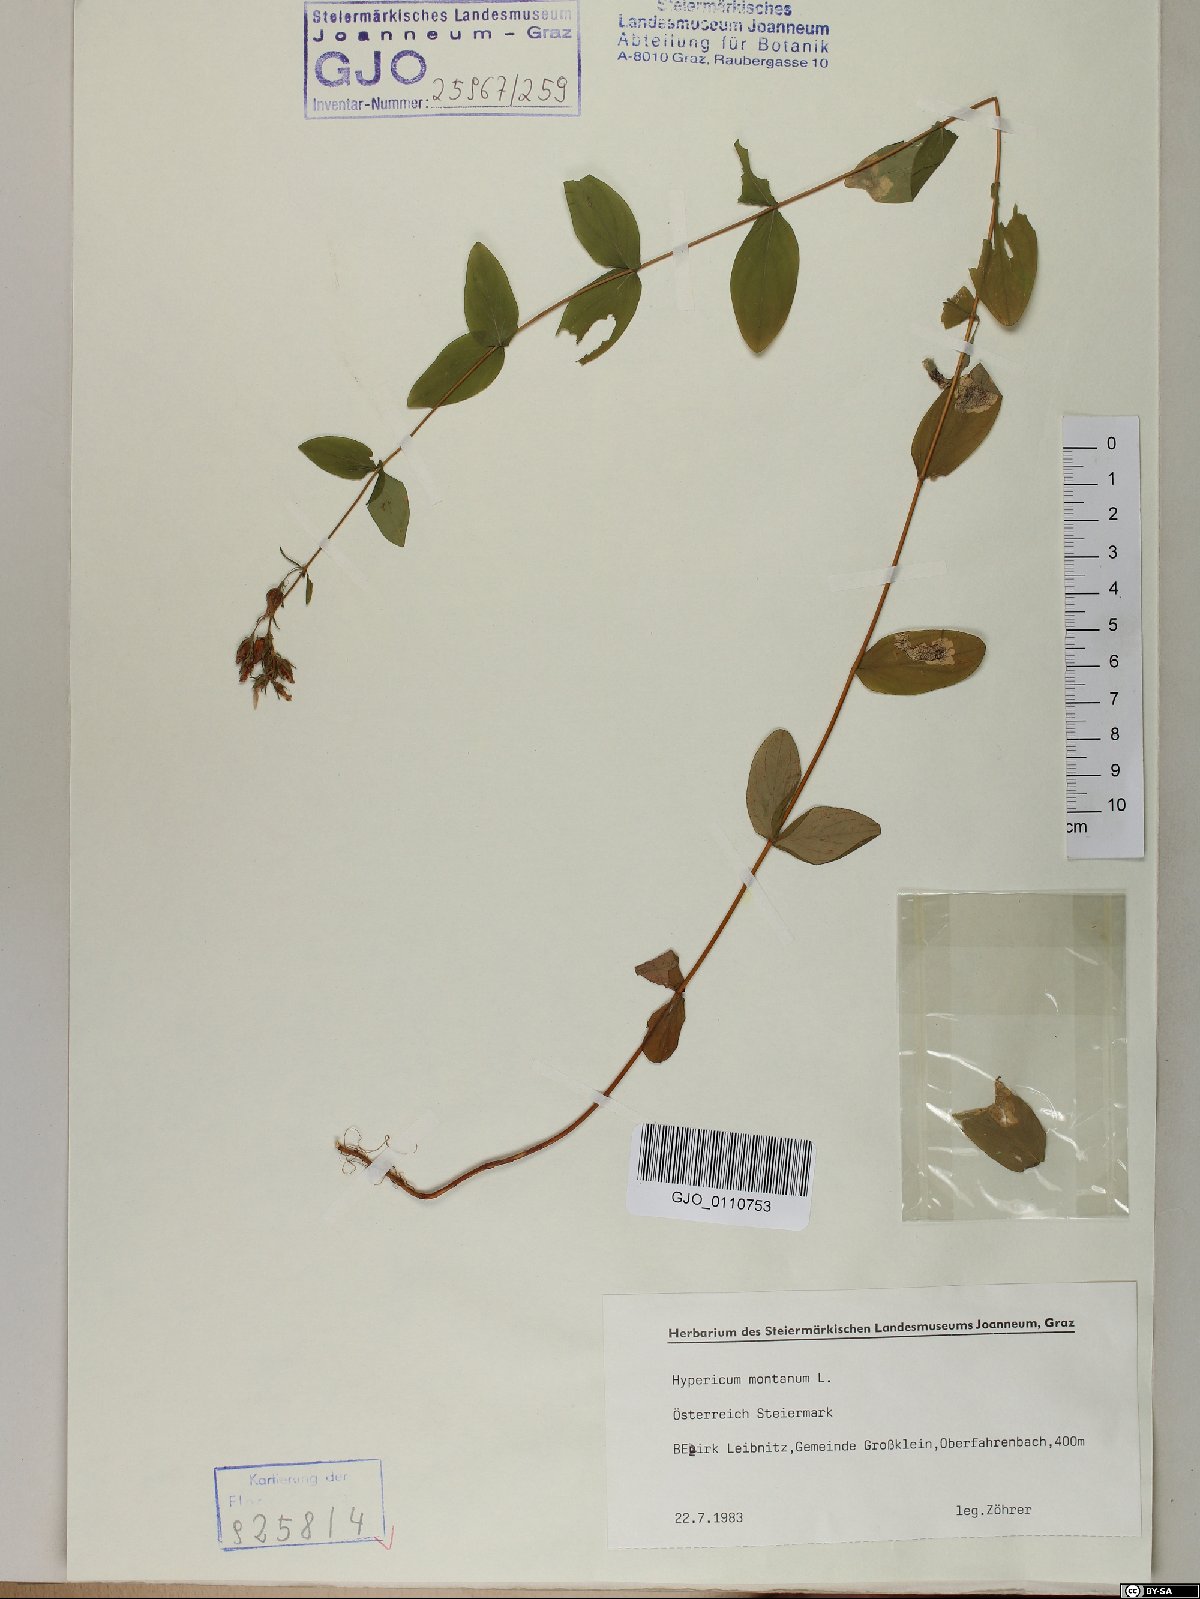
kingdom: Plantae
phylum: Tracheophyta
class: Magnoliopsida
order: Malpighiales
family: Hypericaceae
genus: Hypericum
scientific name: Hypericum montanum
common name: Pale st. john's-wort
